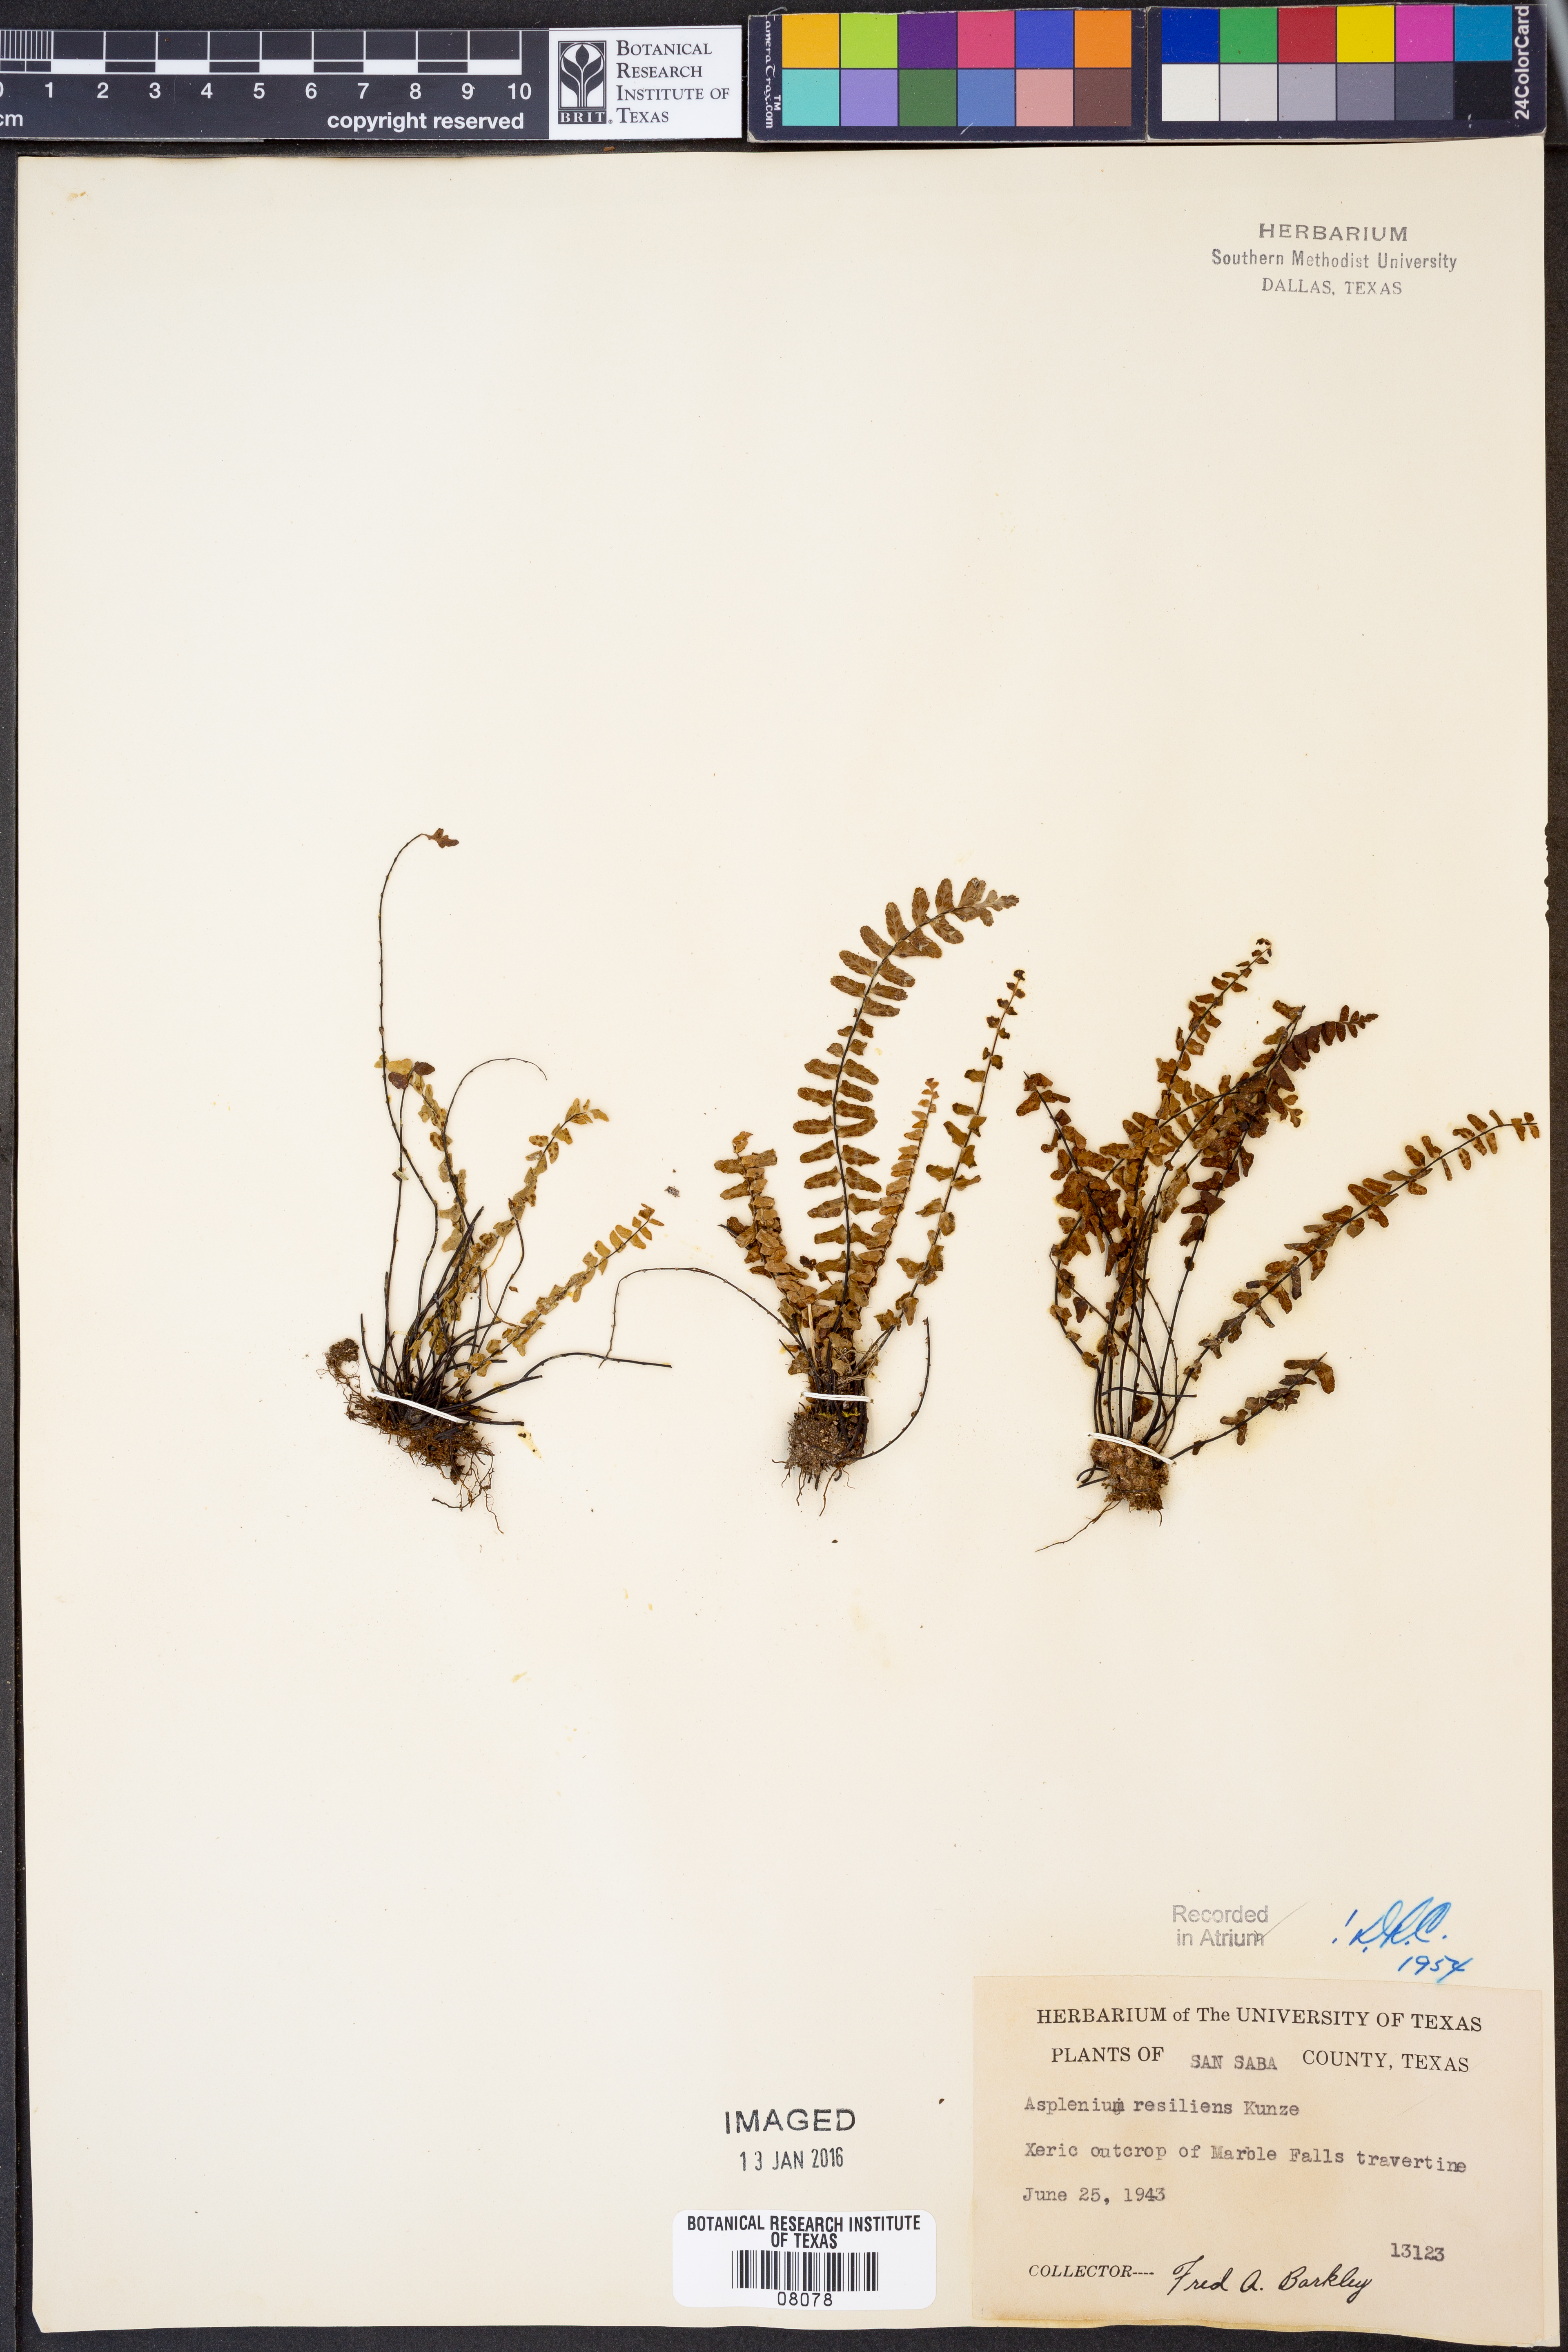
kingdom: Plantae
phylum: Tracheophyta
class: Polypodiopsida
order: Polypodiales
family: Aspleniaceae
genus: Asplenium
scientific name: Asplenium resiliens
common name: Blackstem spleenwort
